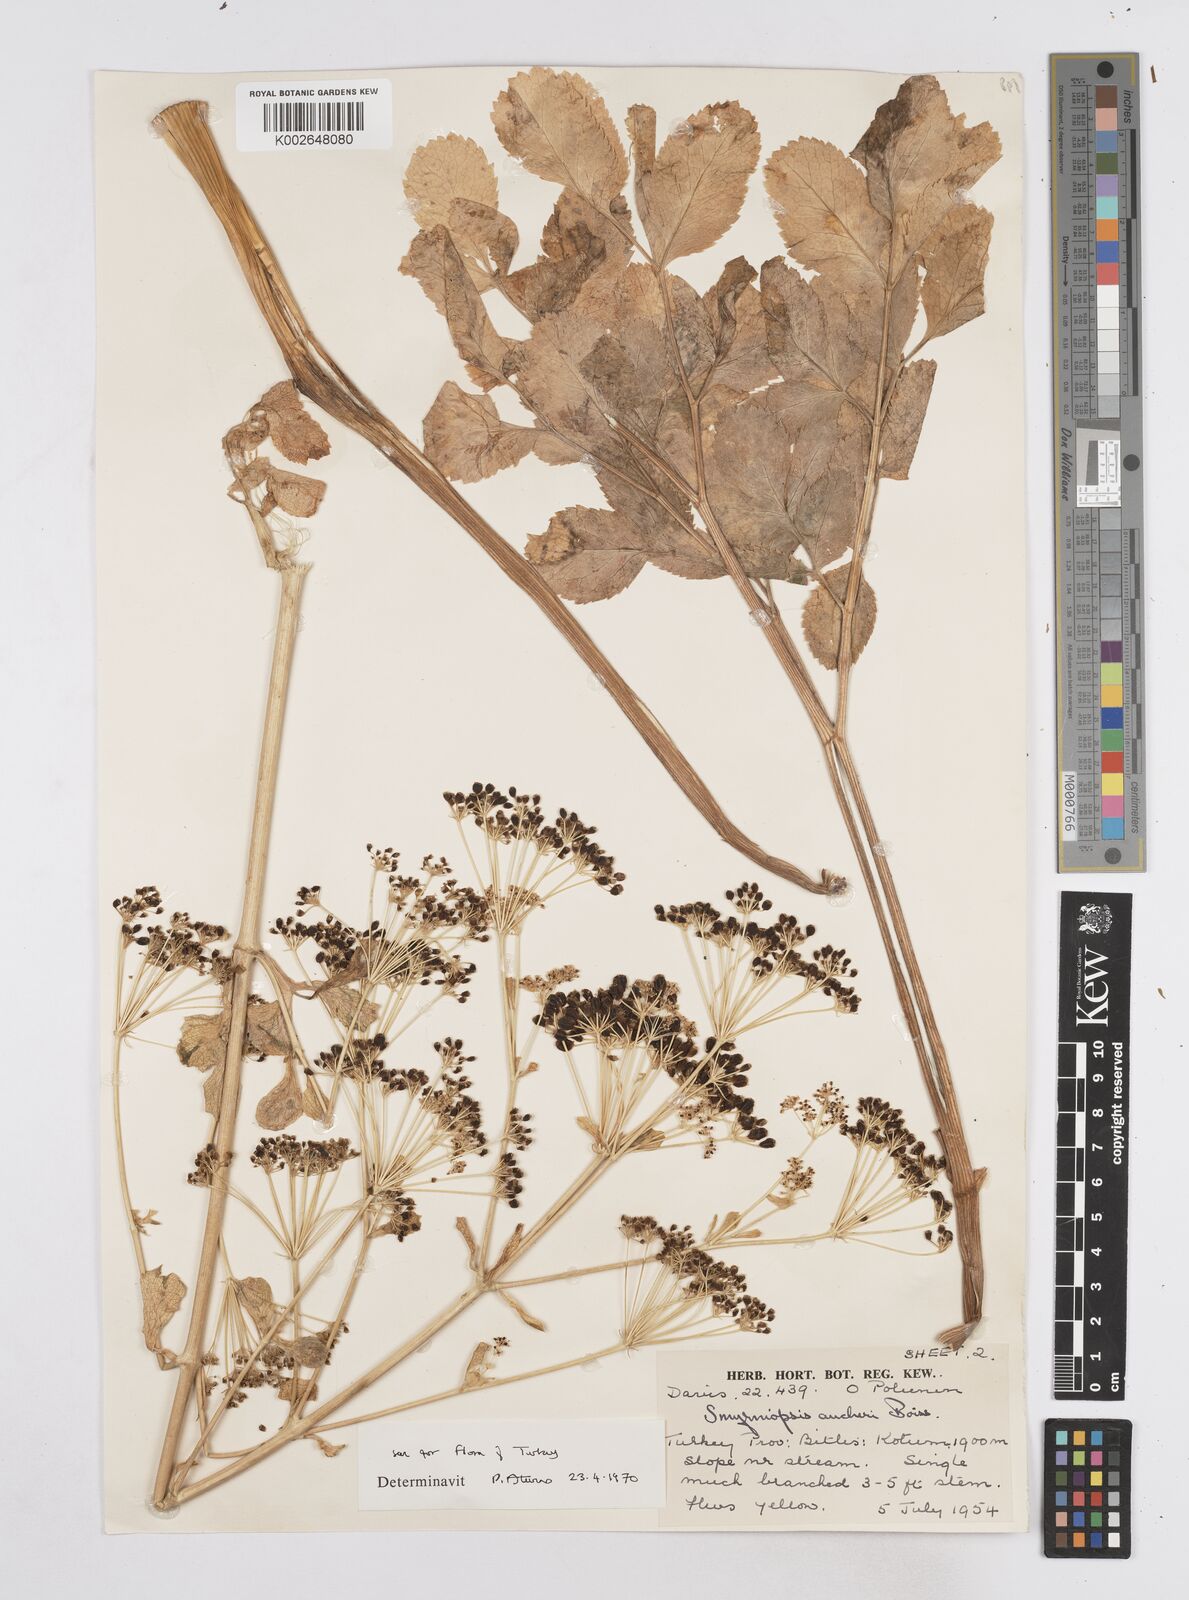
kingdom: Plantae
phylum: Tracheophyta
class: Magnoliopsida
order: Apiales
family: Apiaceae
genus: Smyrniopsis
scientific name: Smyrniopsis aucheri
